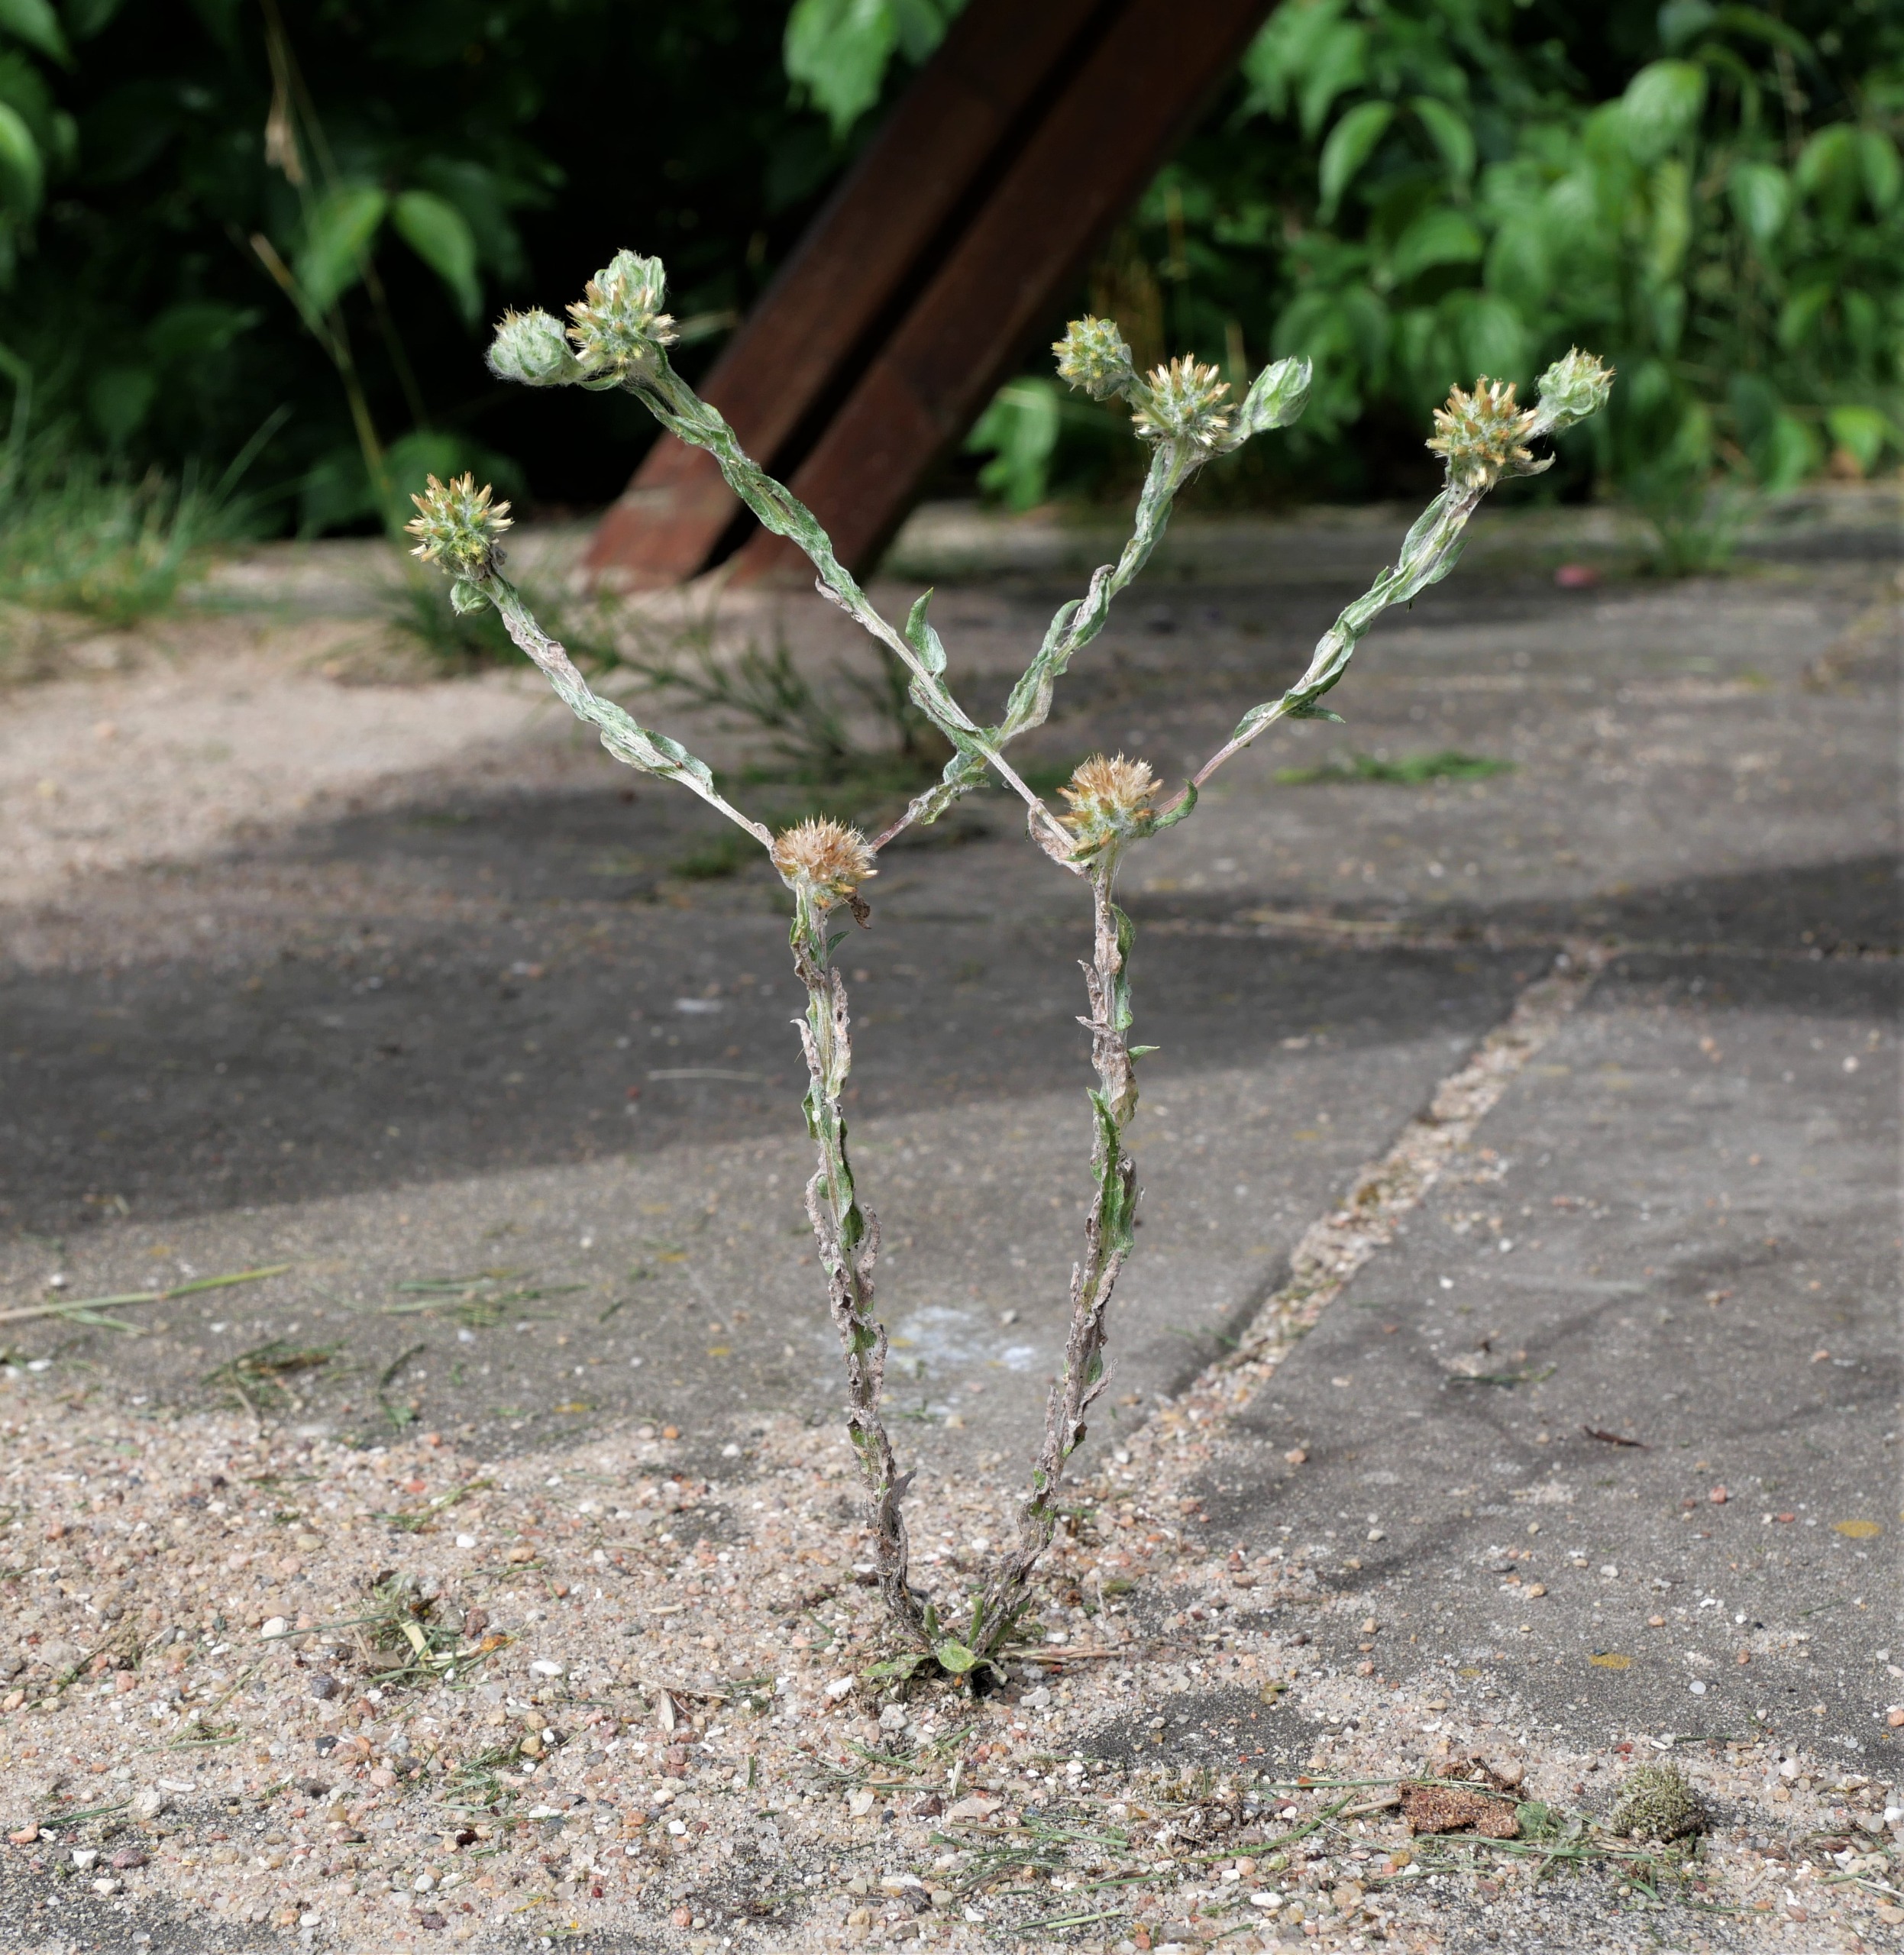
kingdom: Plantae
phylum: Tracheophyta
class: Magnoliopsida
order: Asterales
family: Asteraceae
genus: Filago
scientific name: Filago germanica
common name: Kugle-museurt
